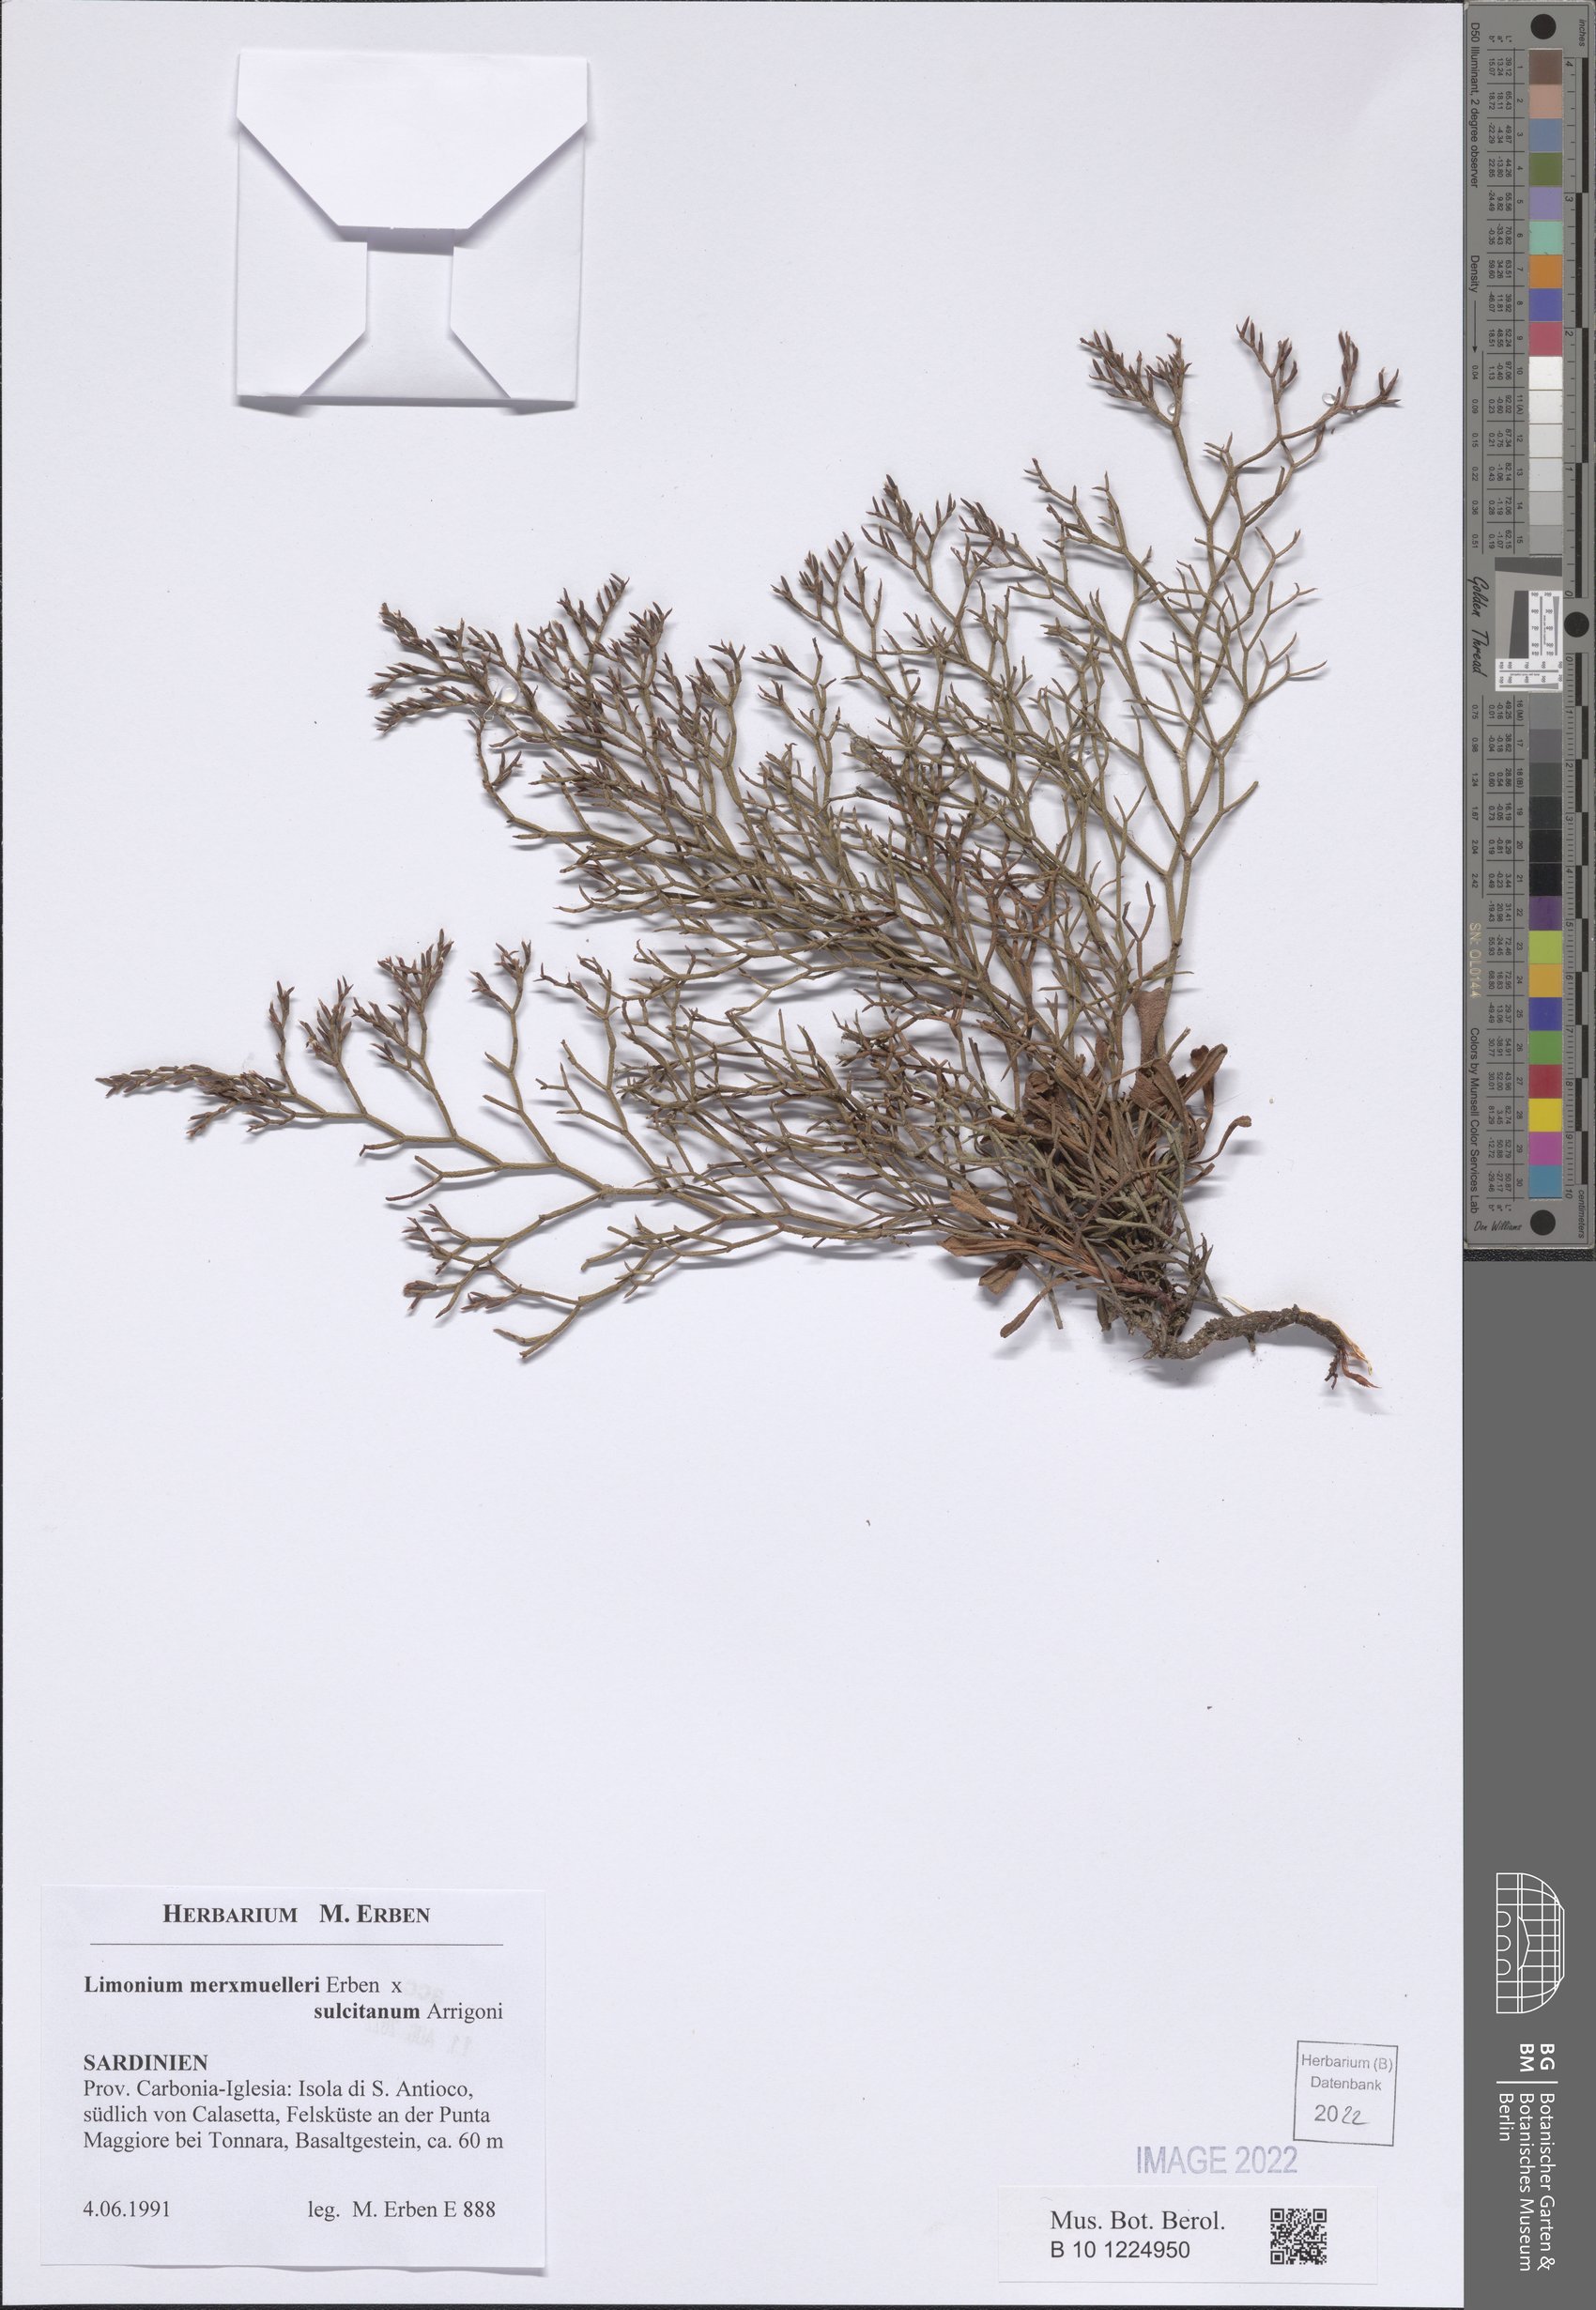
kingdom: Plantae
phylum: Tracheophyta
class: Magnoliopsida
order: Caryophyllales
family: Plumbaginaceae
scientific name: Plumbaginaceae
